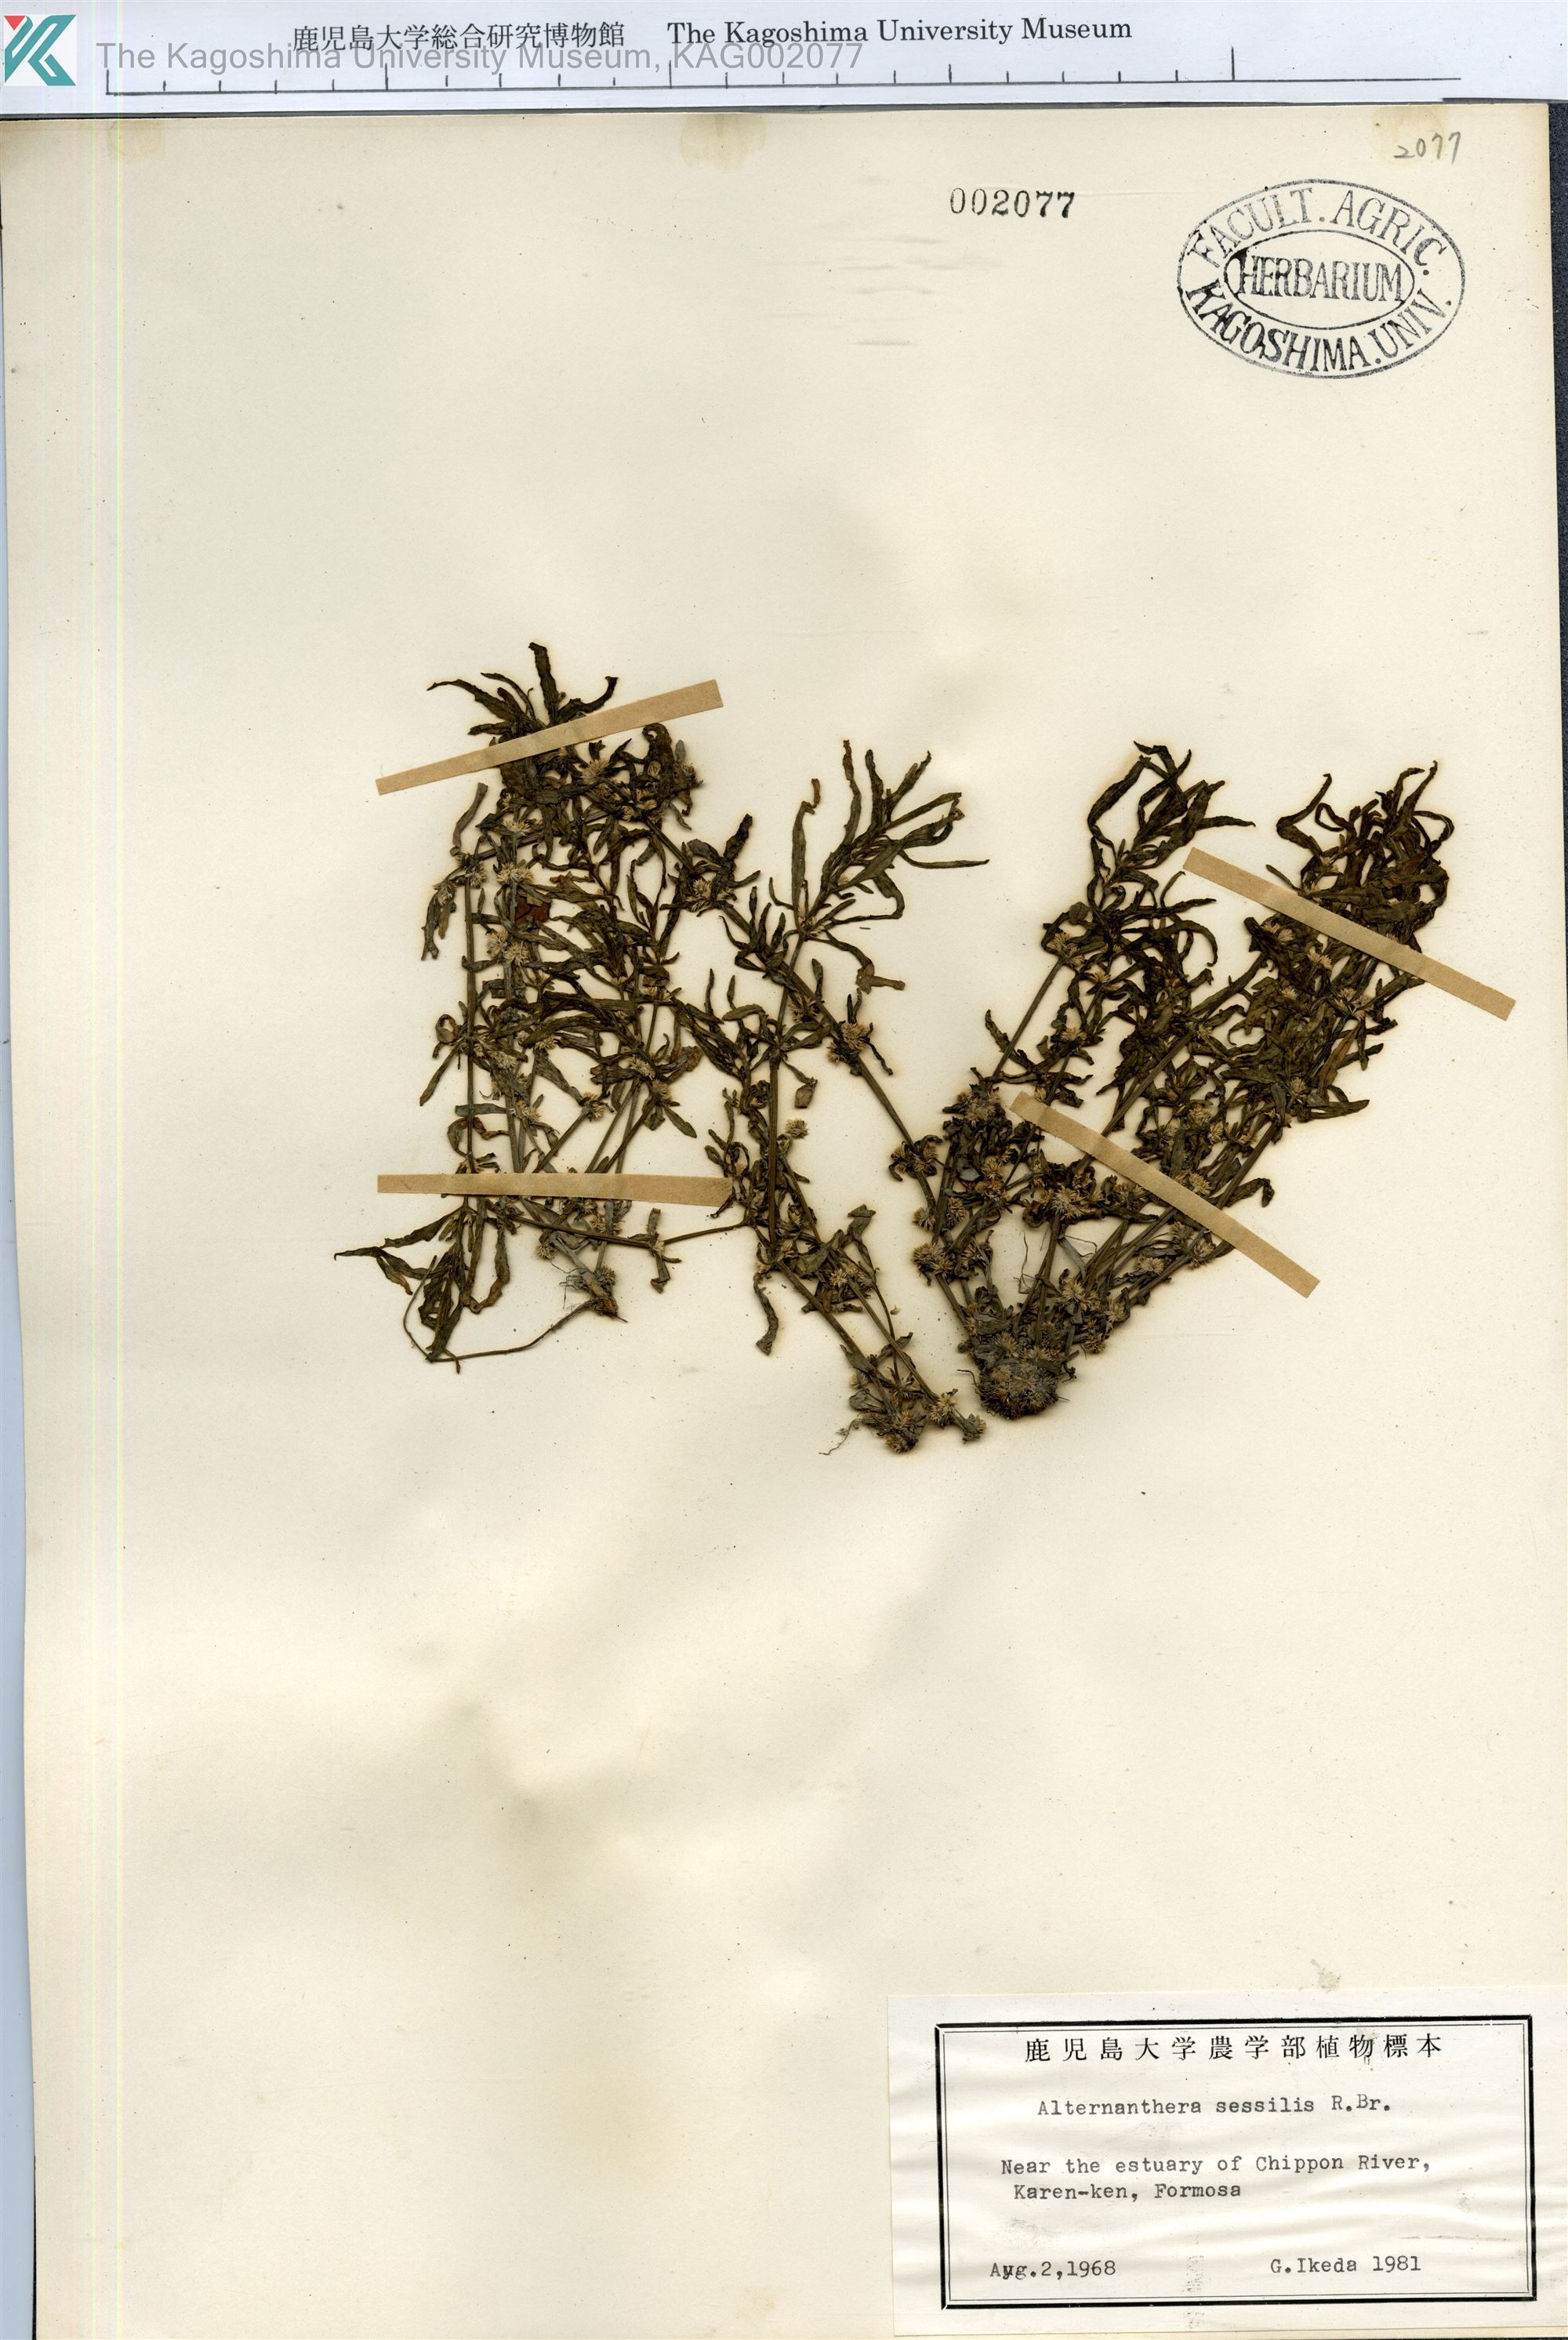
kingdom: Plantae
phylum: Tracheophyta
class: Magnoliopsida
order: Caryophyllales
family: Amaranthaceae
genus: Alternanthera
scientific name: Alternanthera sessilis
